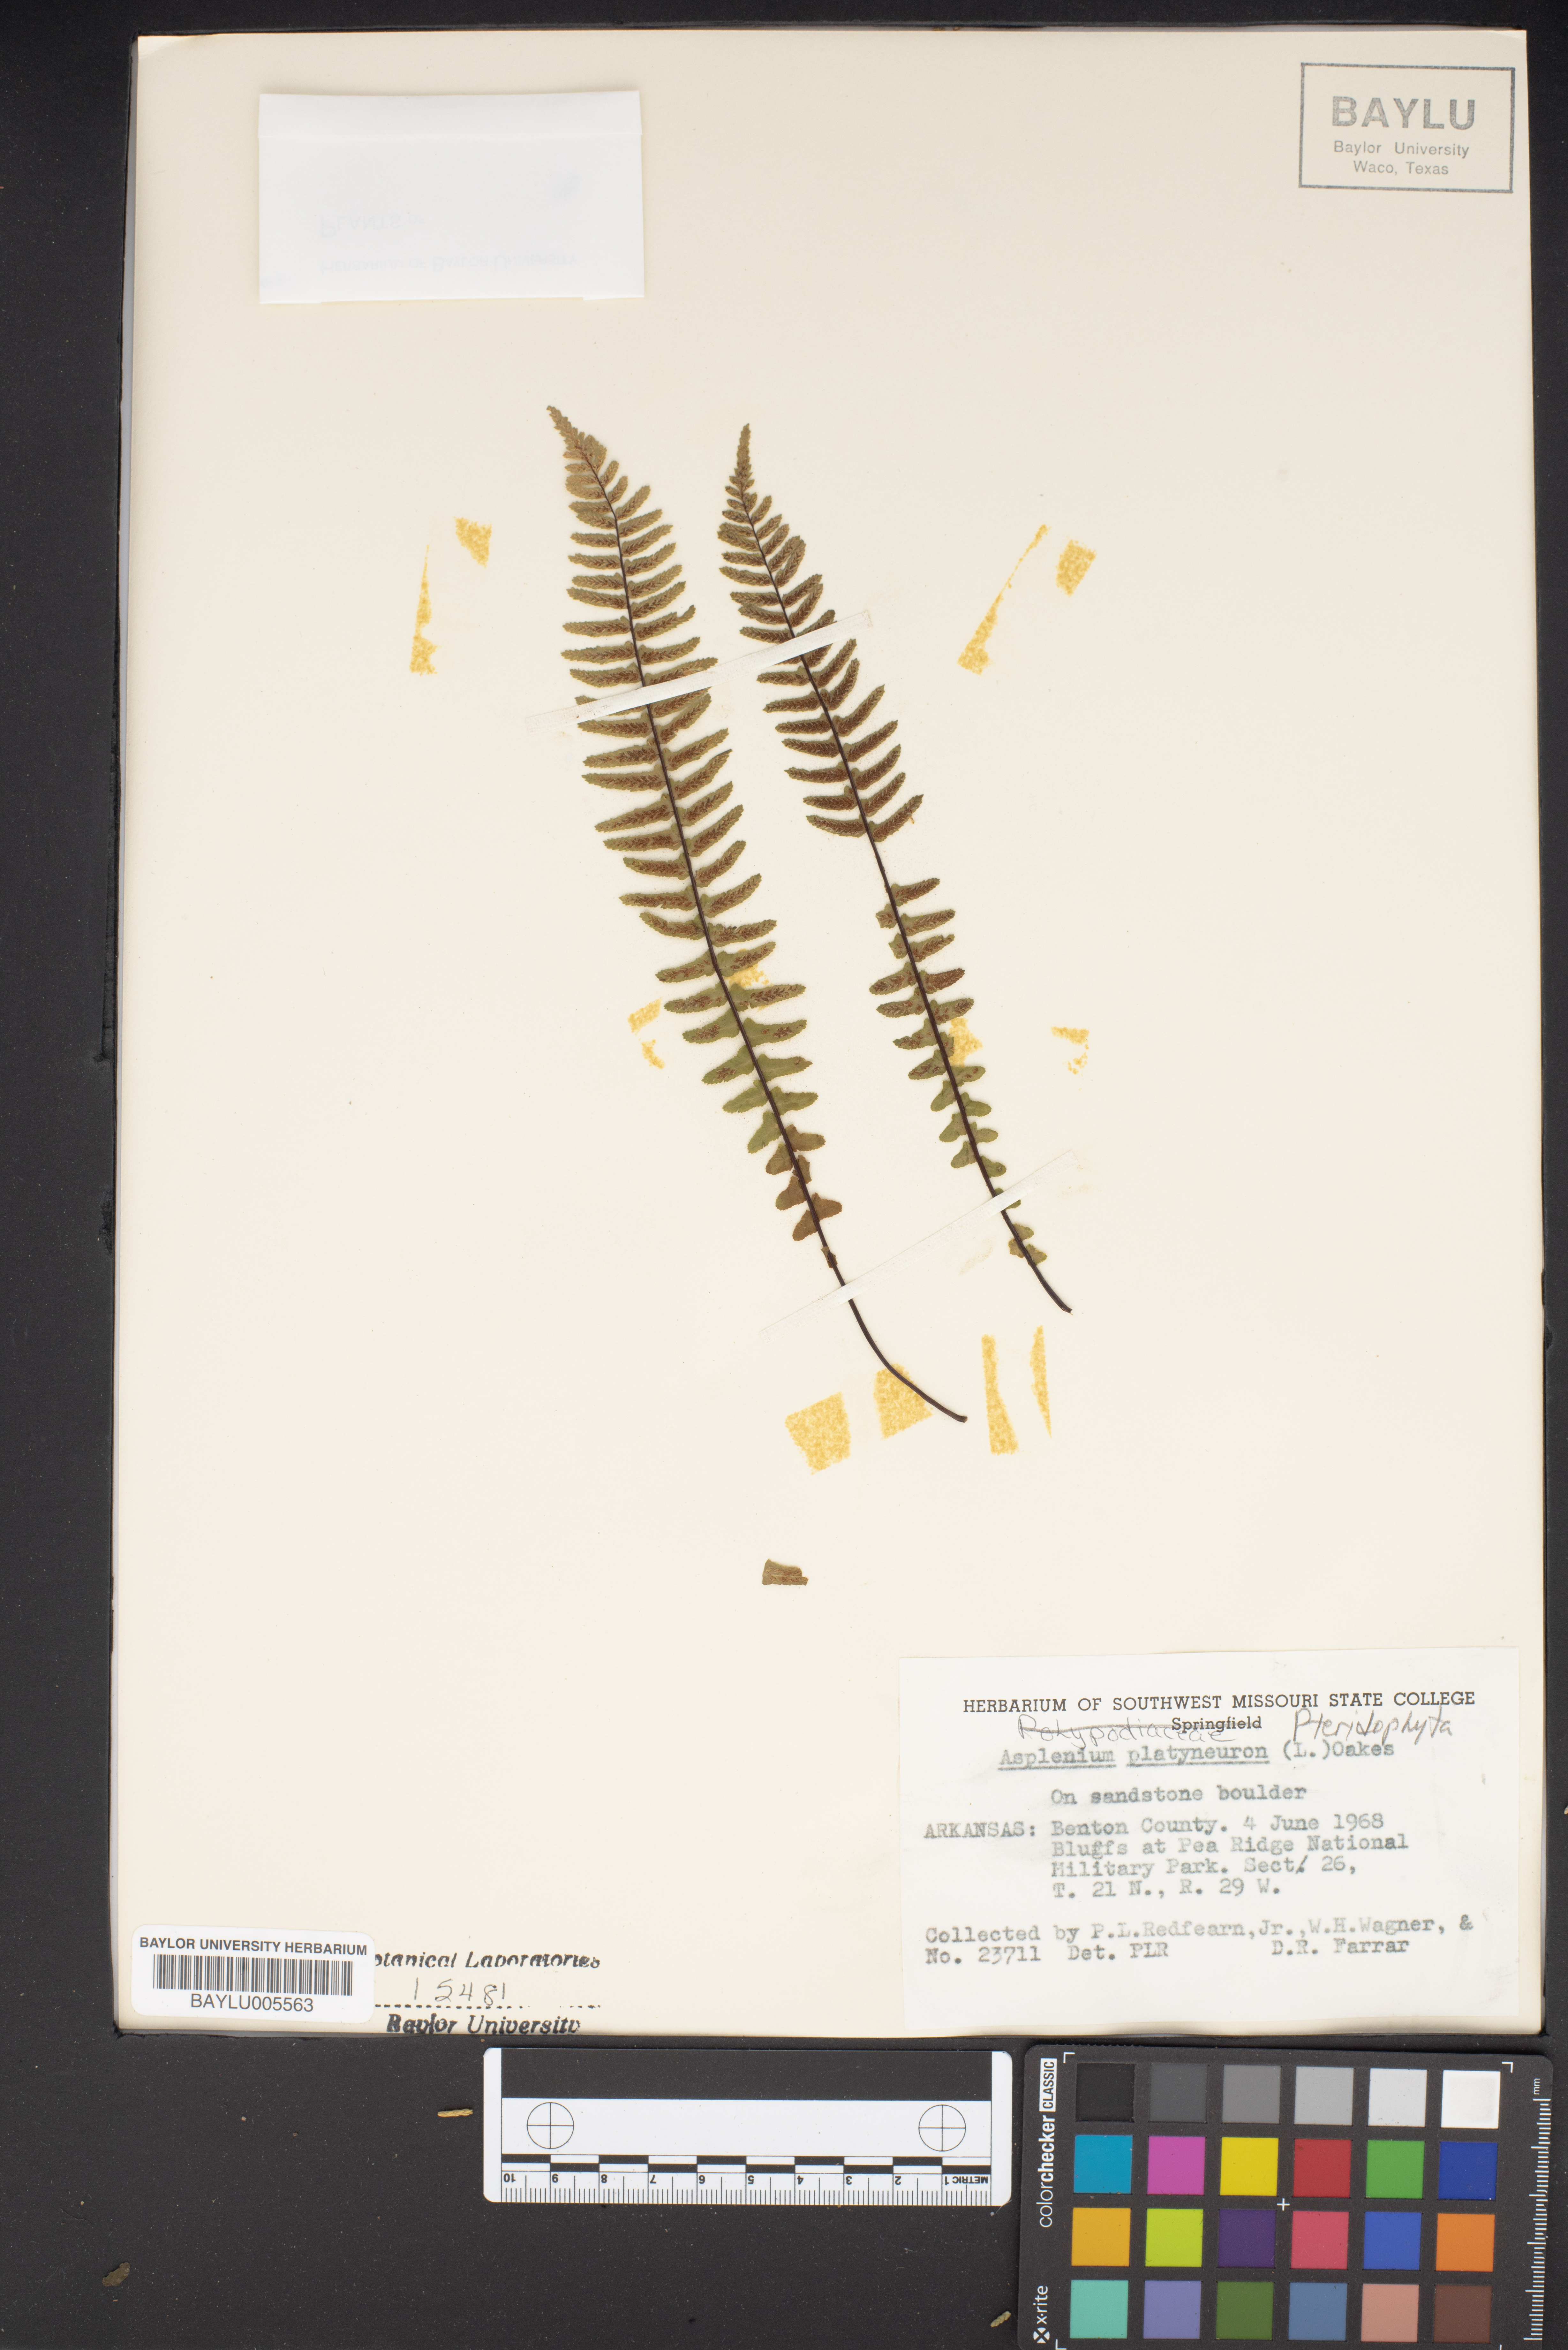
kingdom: Plantae
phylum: Tracheophyta
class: Polypodiopsida
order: Polypodiales
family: Aspleniaceae
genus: Asplenium
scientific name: Asplenium platyneuron
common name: Ebony spleenwort
